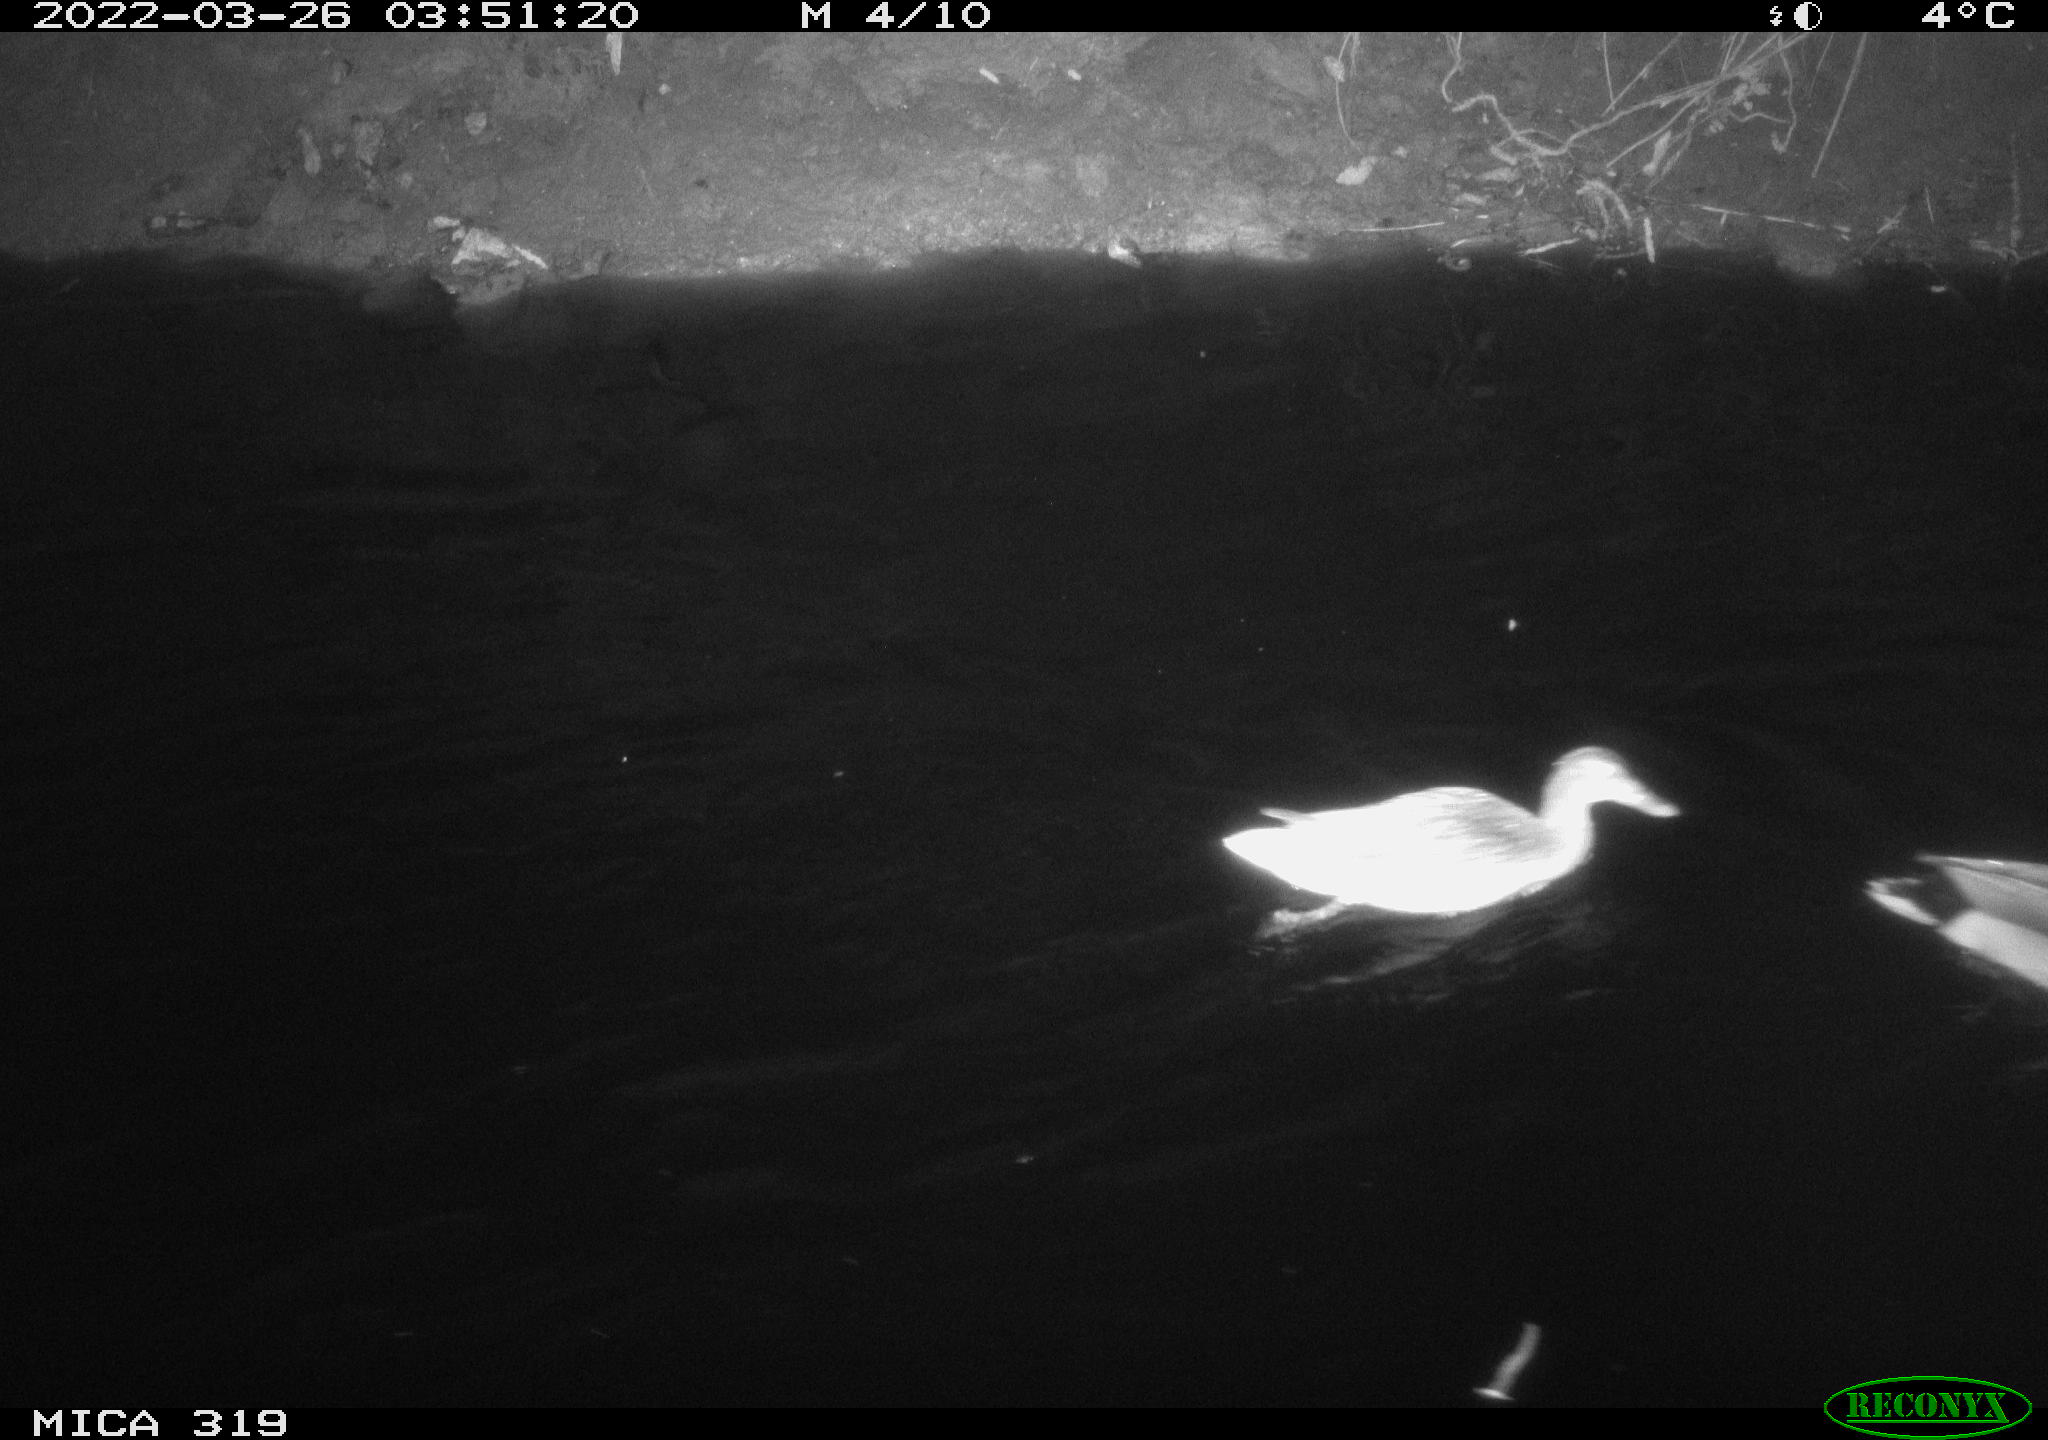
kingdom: Animalia
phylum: Chordata
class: Aves
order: Anseriformes
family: Anatidae
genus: Anas
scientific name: Anas platyrhynchos
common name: Mallard
